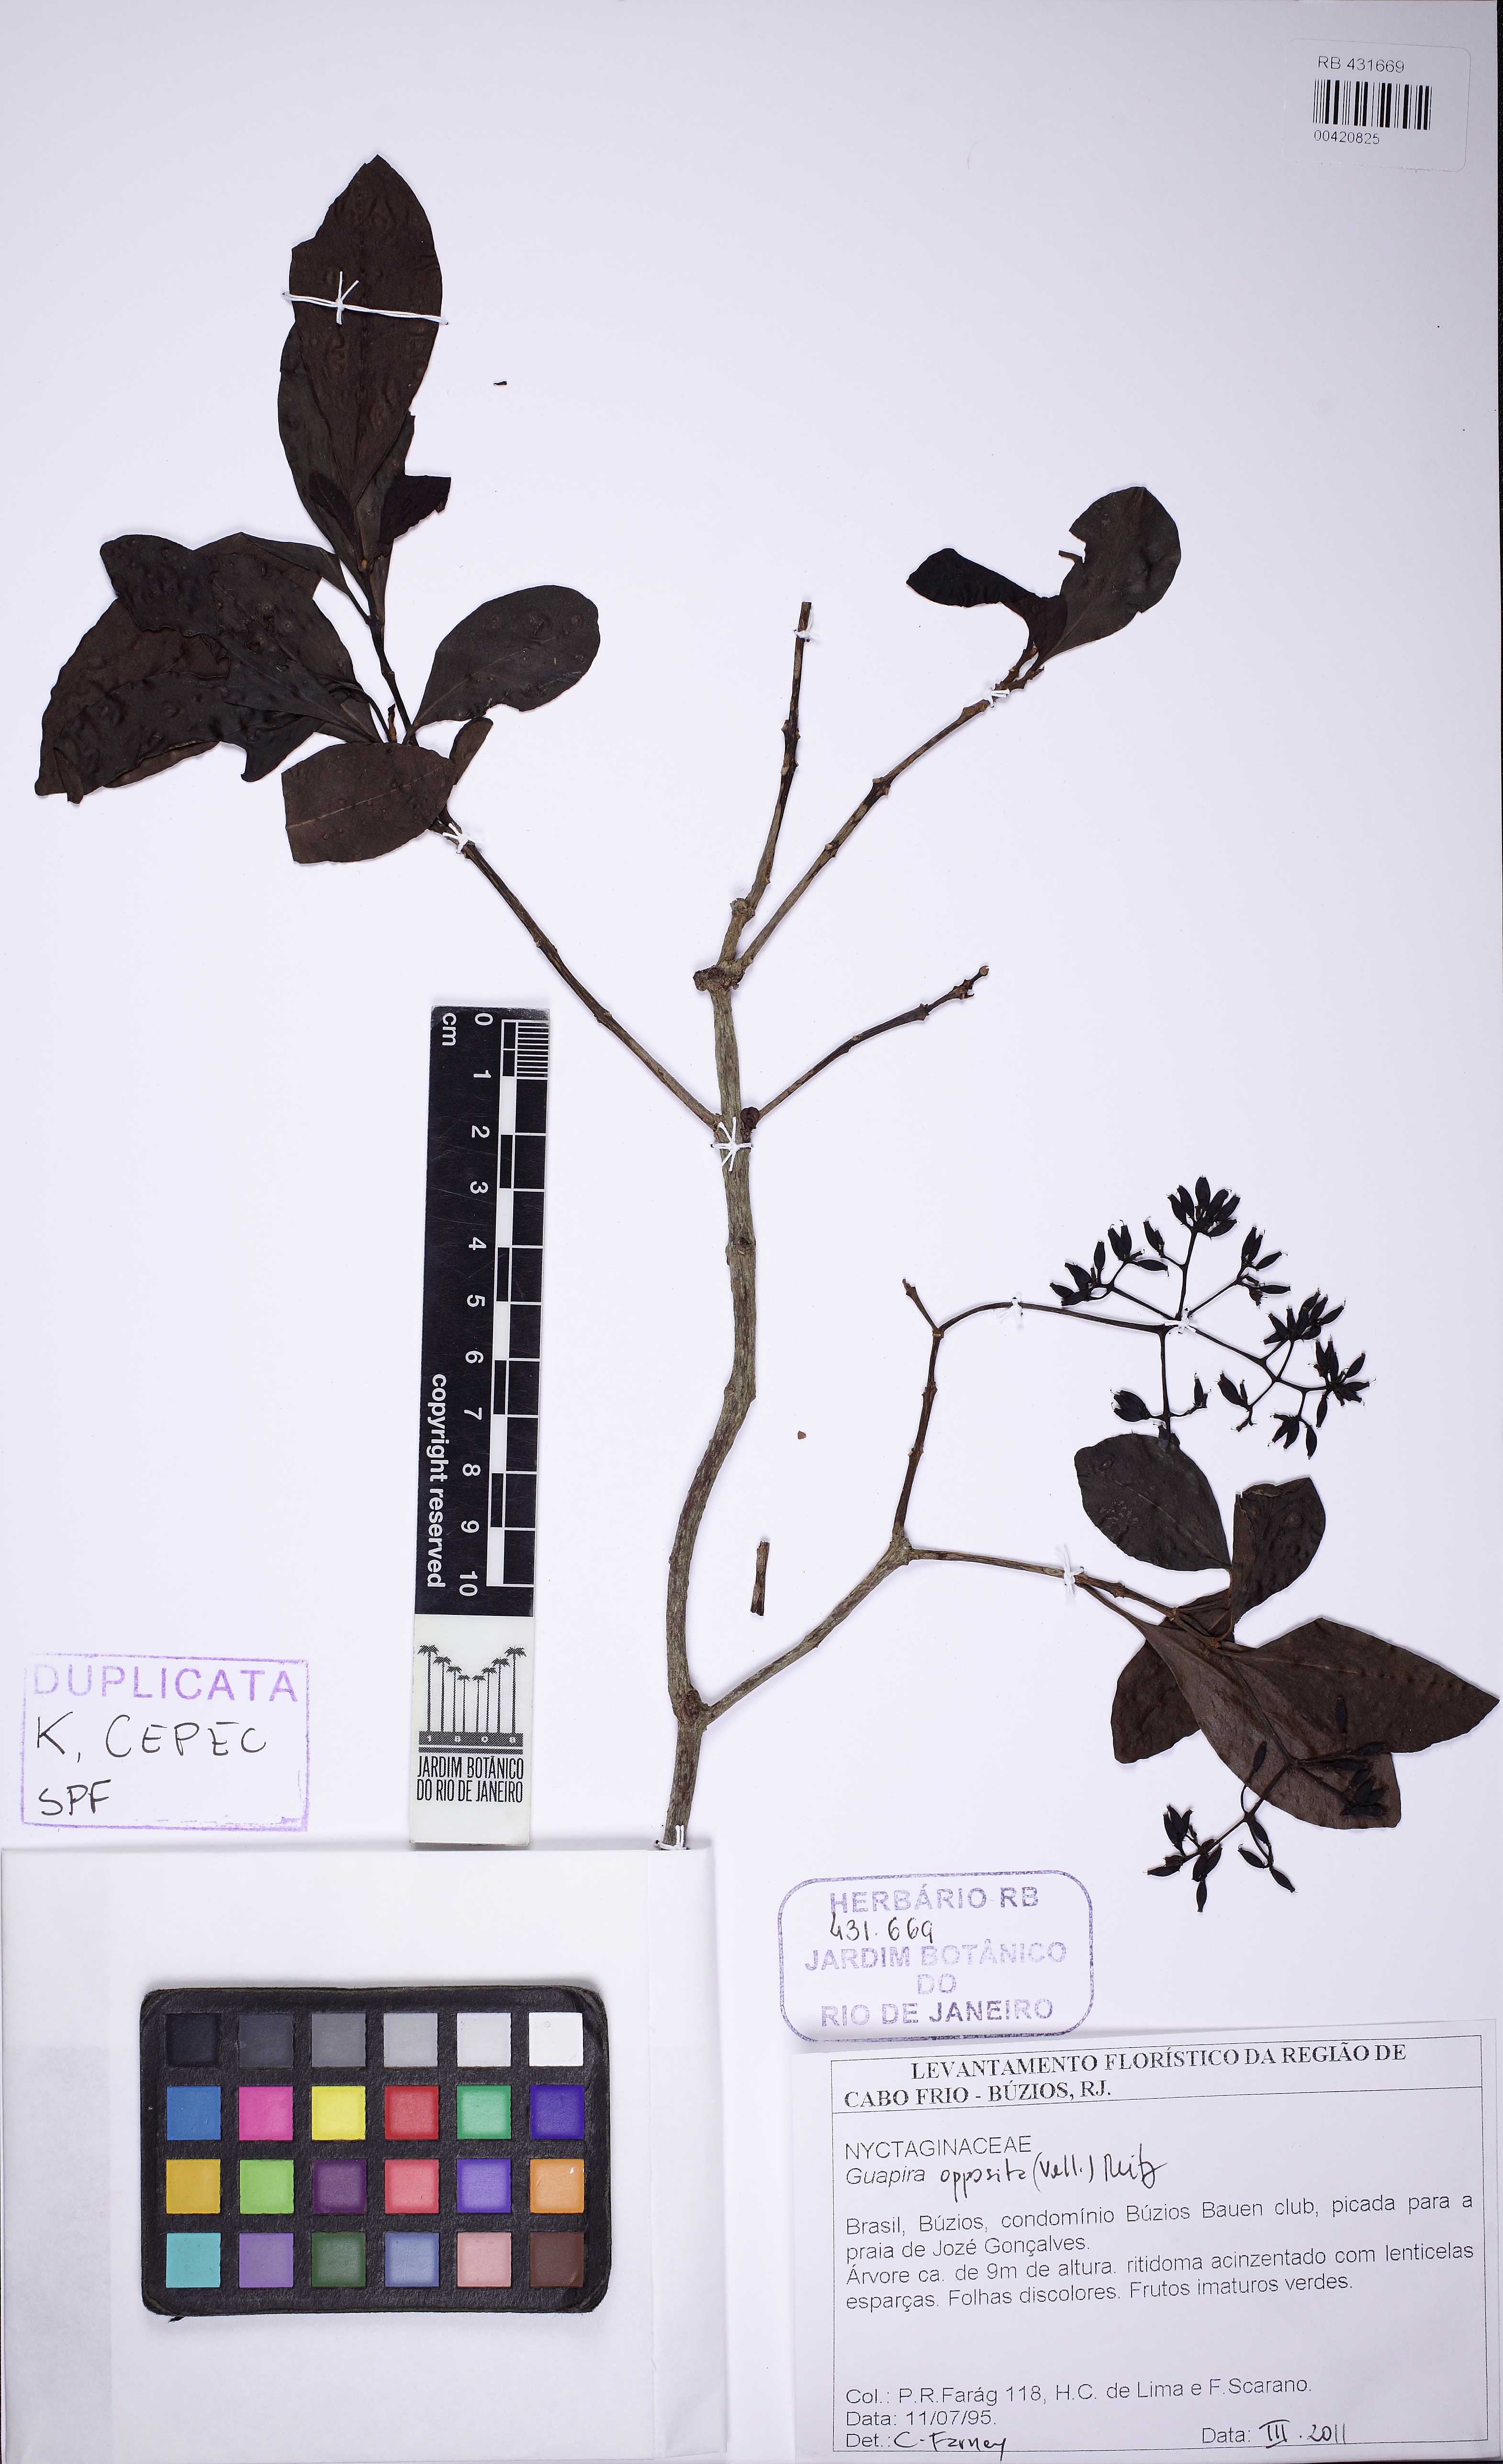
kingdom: Plantae
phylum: Tracheophyta
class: Magnoliopsida
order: Caryophyllales
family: Nyctaginaceae
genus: Guapira
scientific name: Guapira opposita
